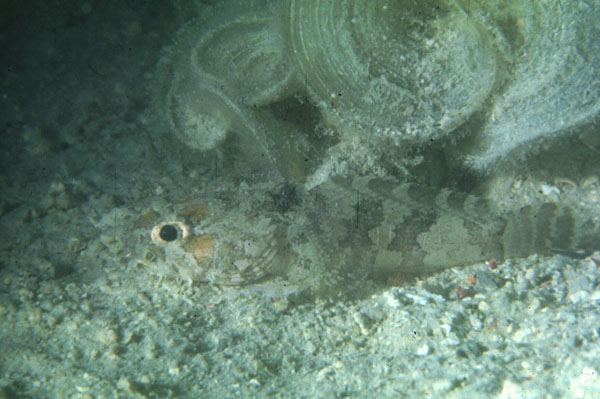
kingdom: Animalia
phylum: Chordata
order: Batrachoidiformes
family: Batrachoididae
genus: Colletteichthys
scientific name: Colletteichthys dussumieri
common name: Flat toadfish
